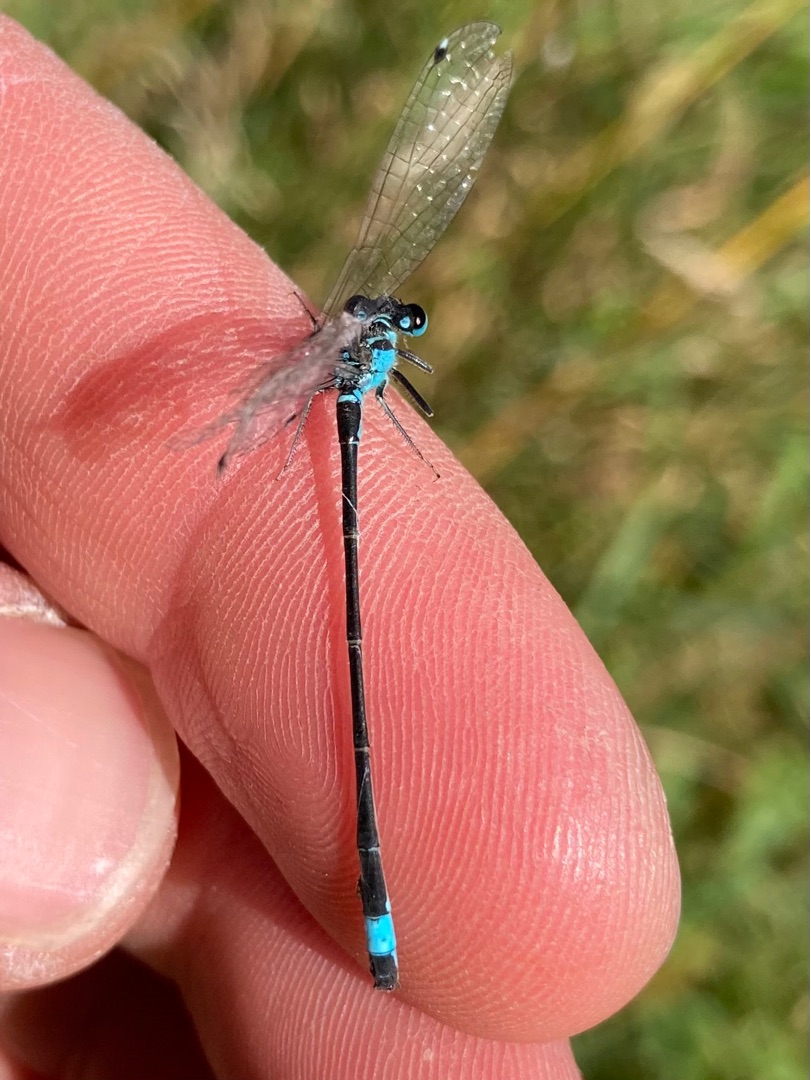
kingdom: Animalia
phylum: Arthropoda
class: Insecta
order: Odonata
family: Coenagrionidae
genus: Ischnura
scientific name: Ischnura elegans
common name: Stor farvevandnymfe
